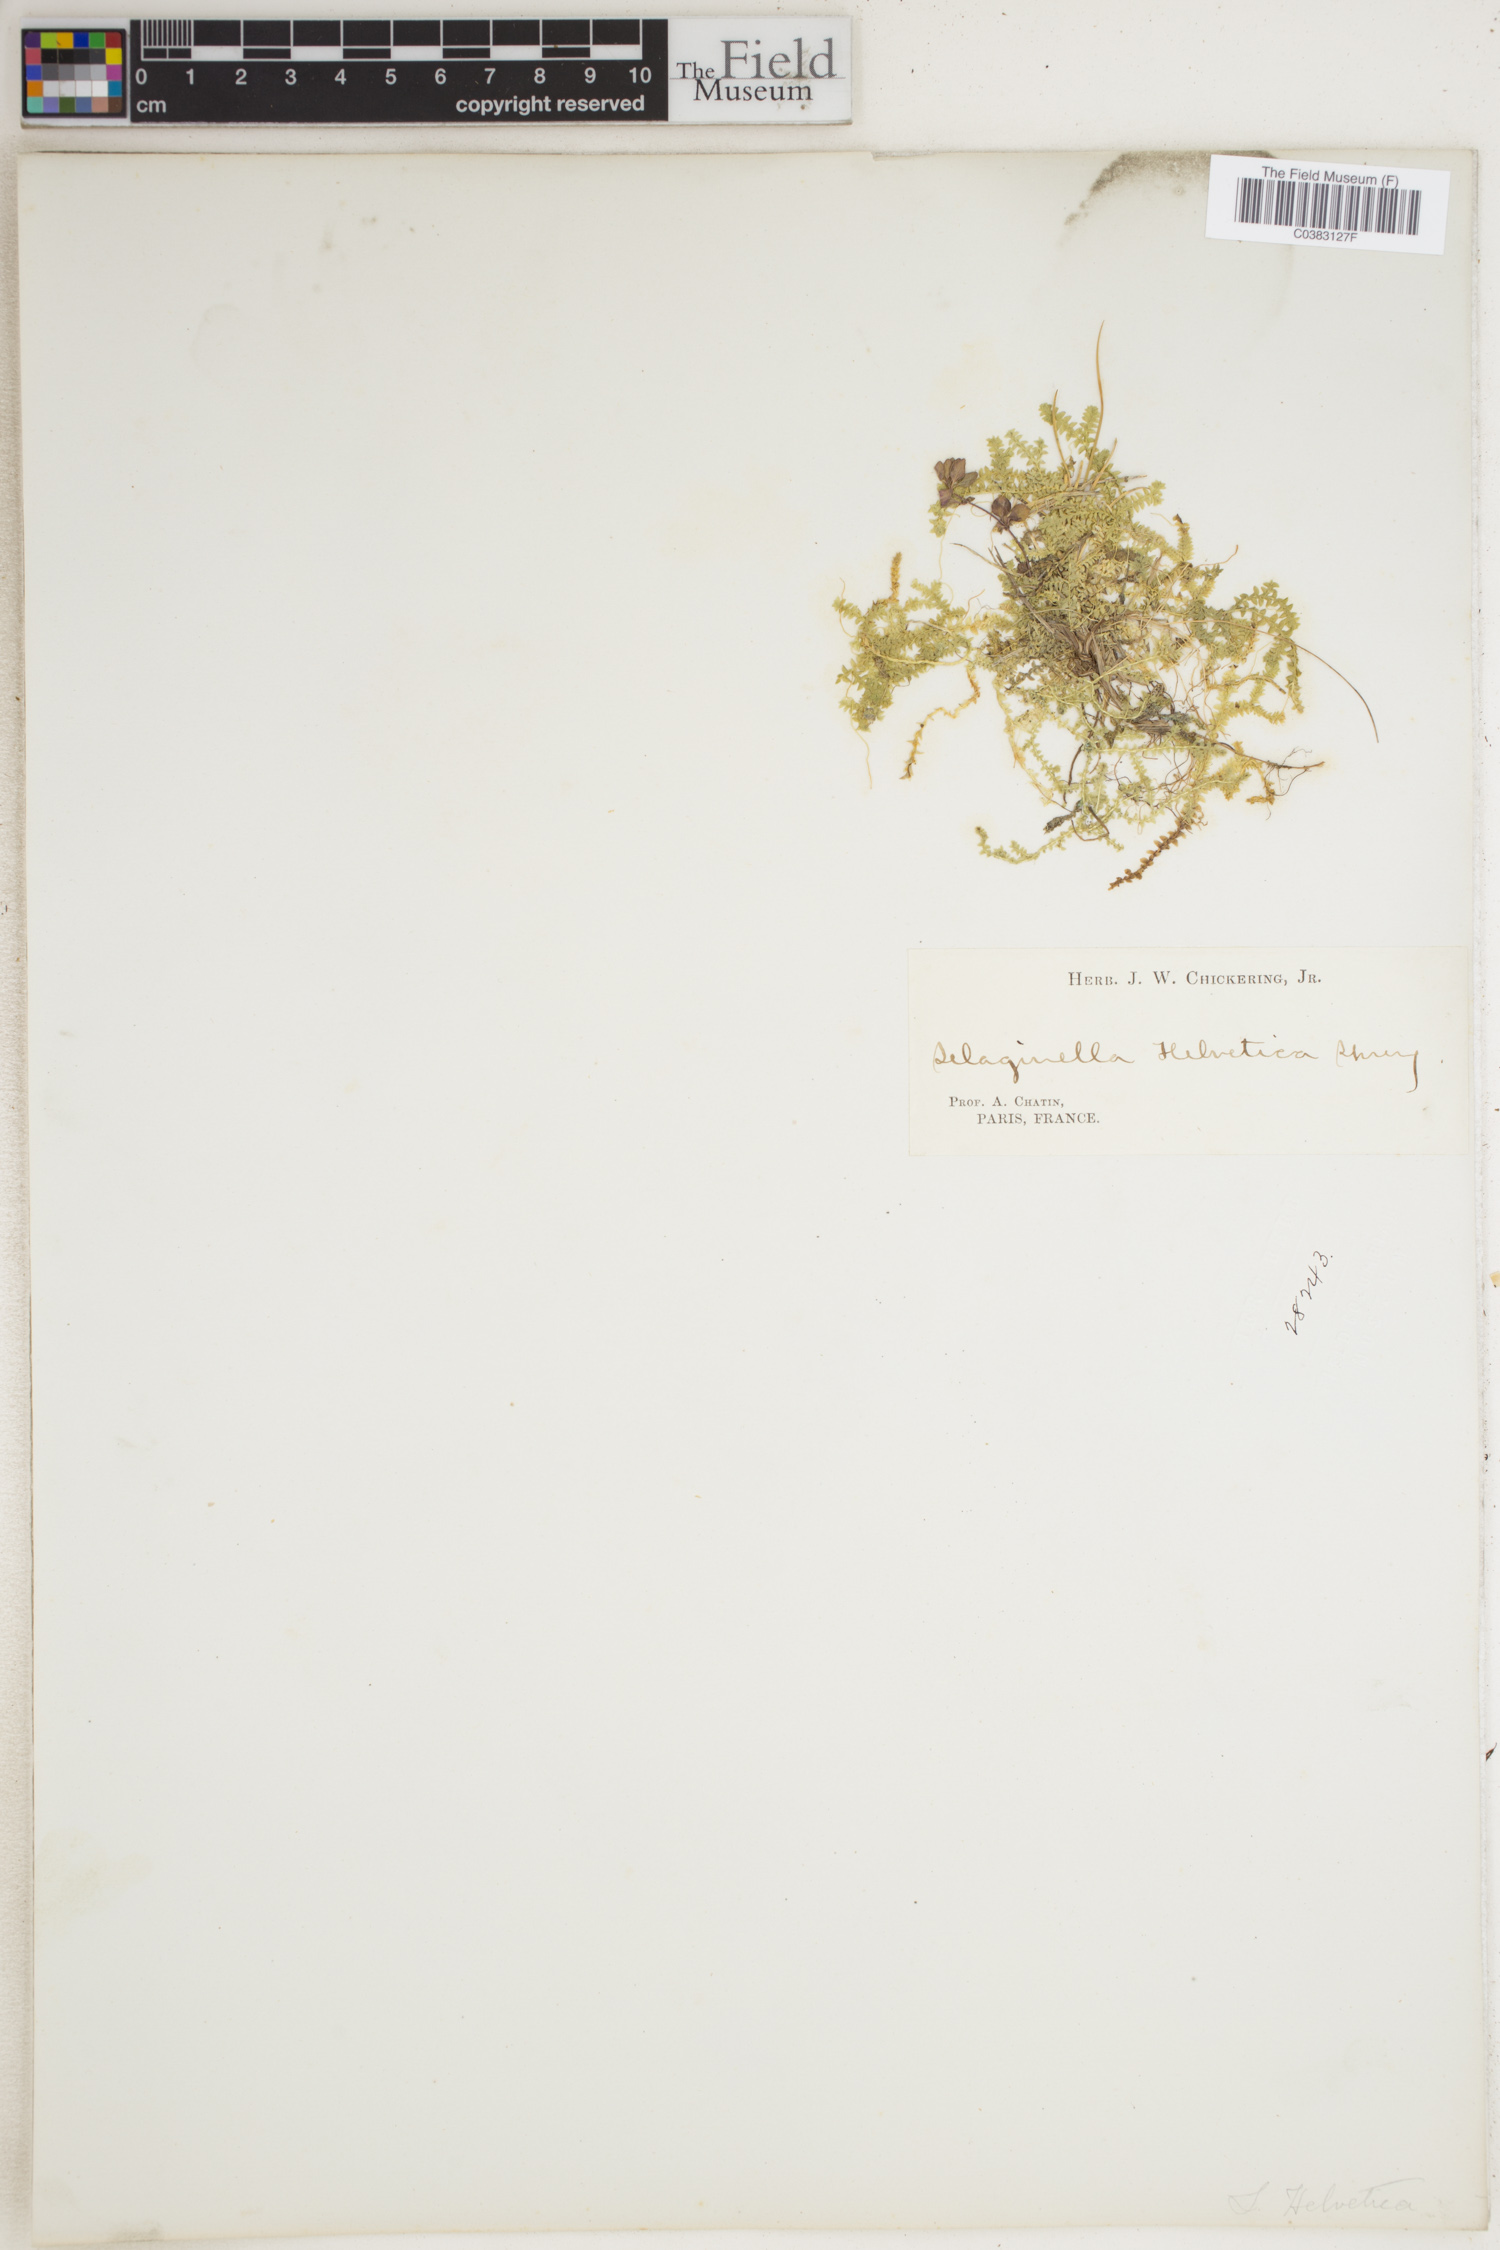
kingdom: Plantae
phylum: Tracheophyta
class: Lycopodiopsida
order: Selaginellales
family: Selaginellaceae
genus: Selaginella
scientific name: Selaginella helvetica
